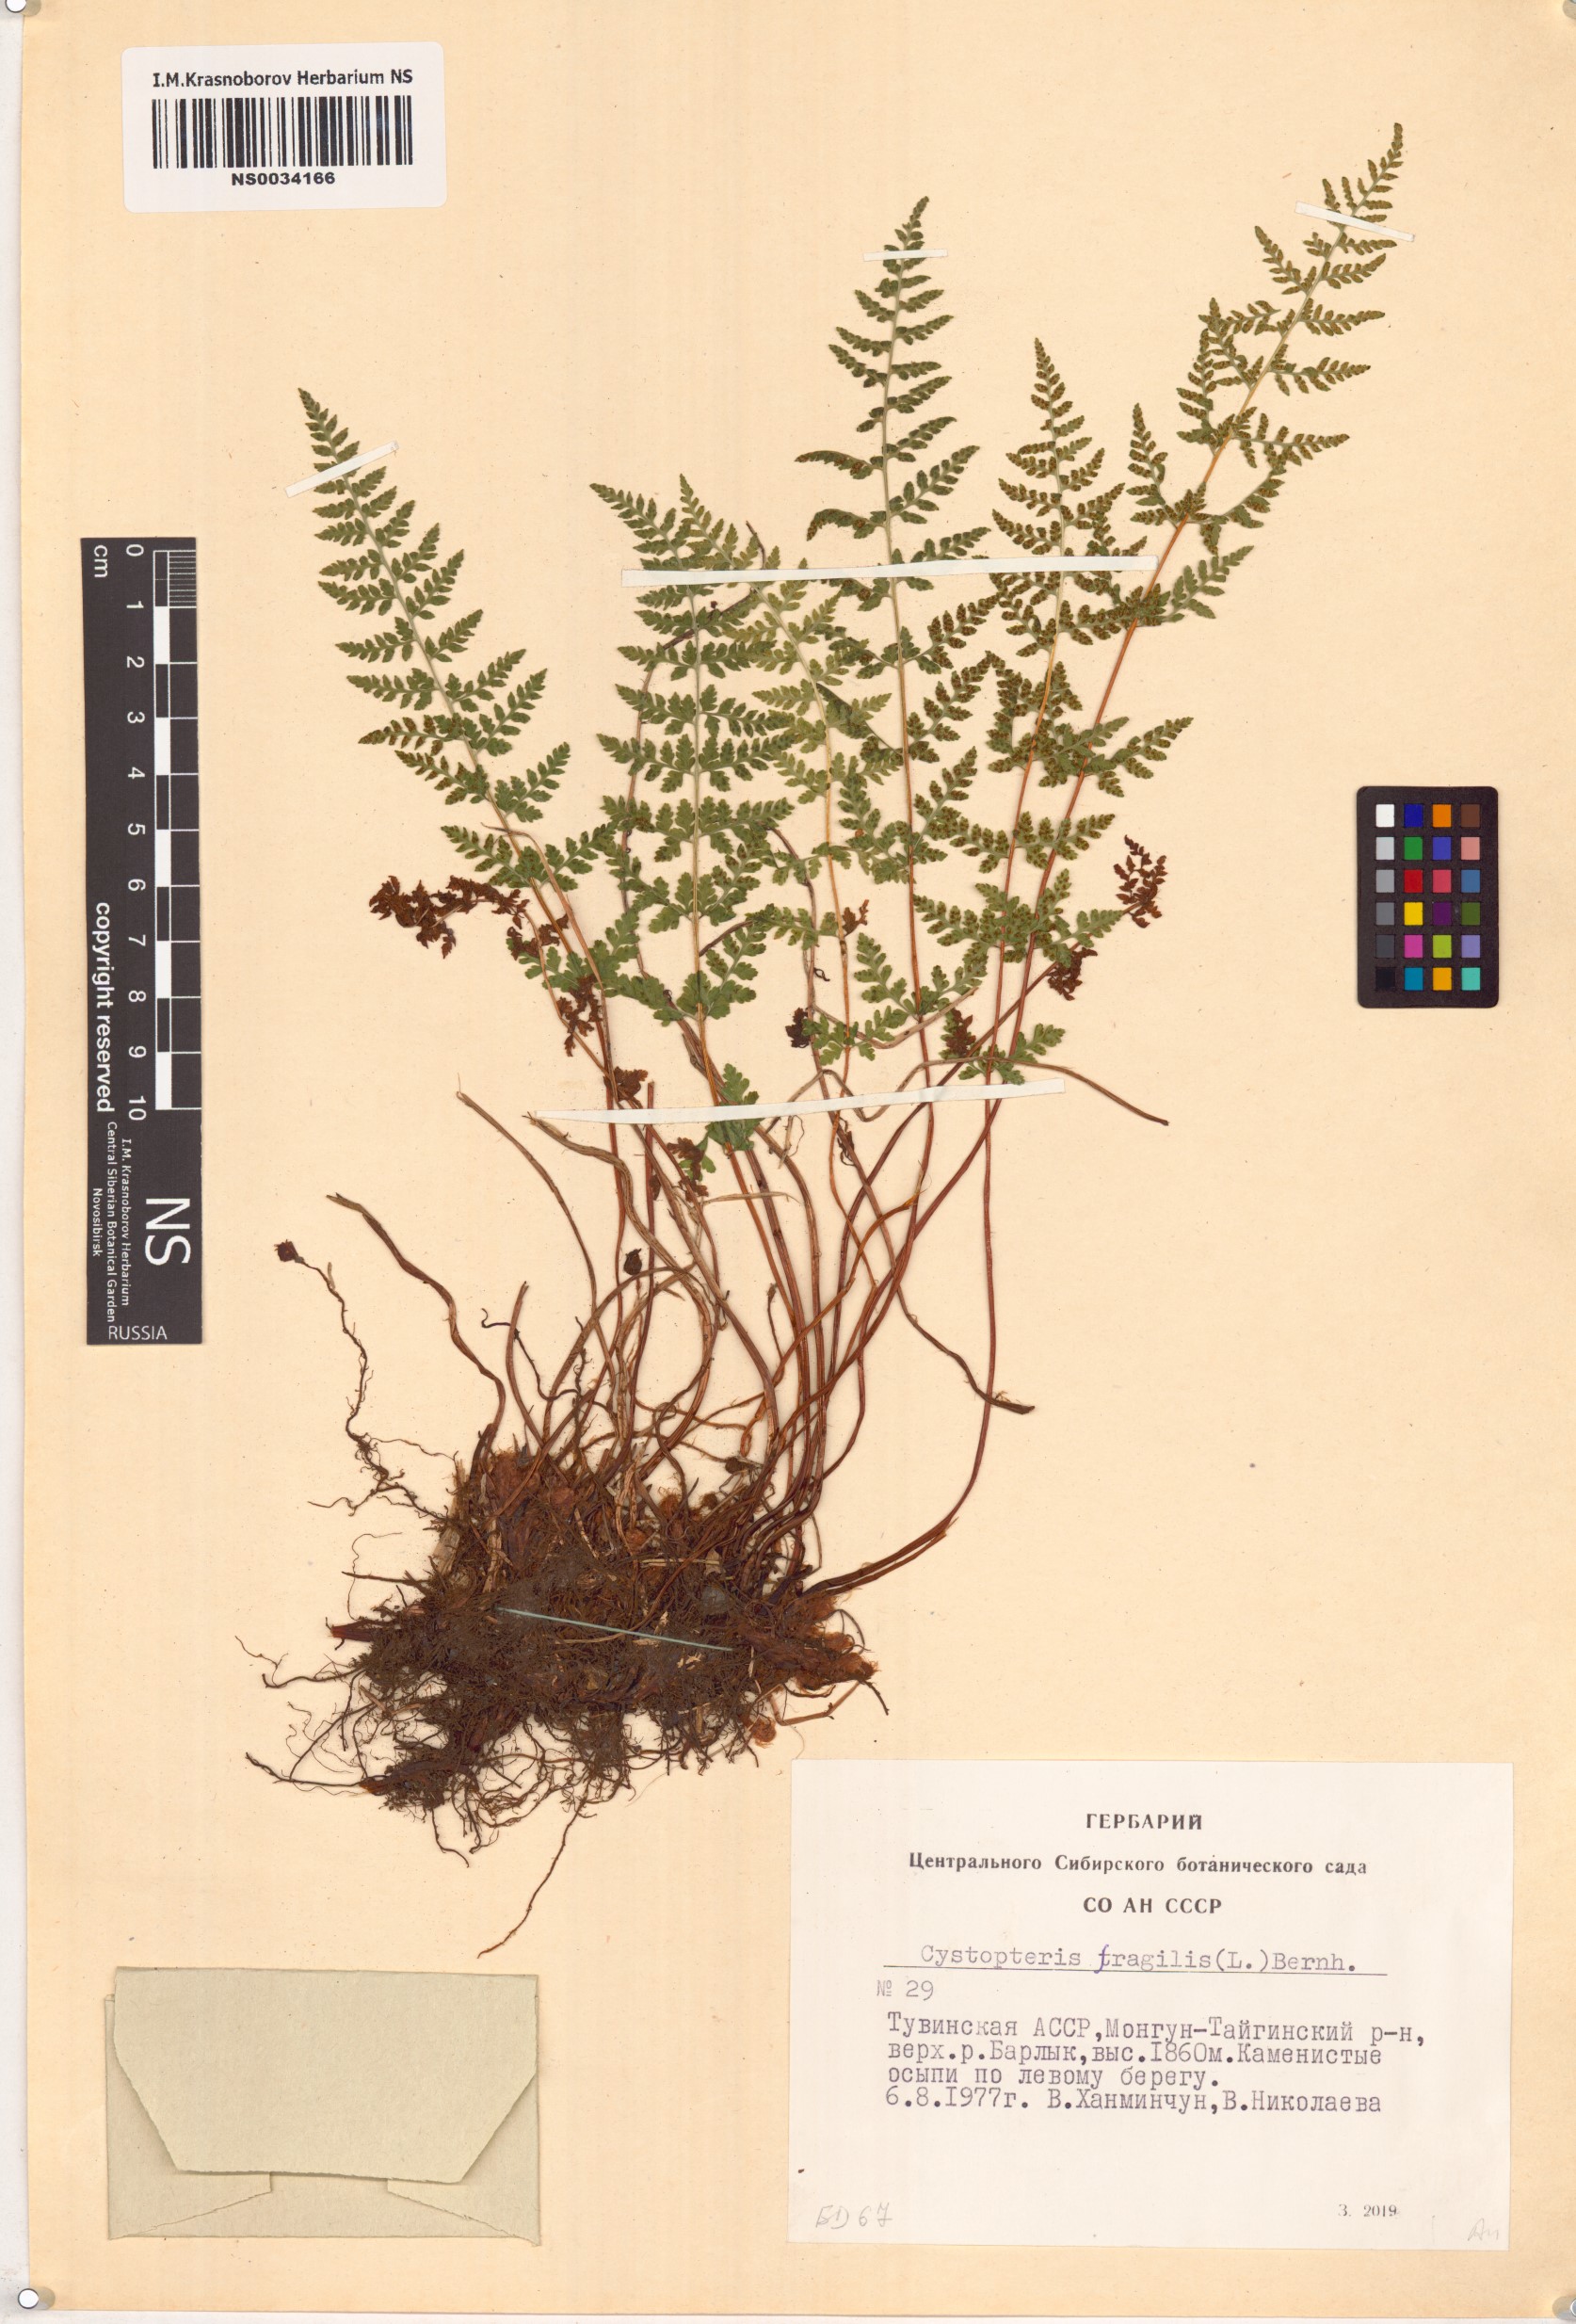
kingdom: Plantae
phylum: Tracheophyta
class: Polypodiopsida
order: Polypodiales
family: Cystopteridaceae
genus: Cystopteris
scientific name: Cystopteris fragilis
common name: Brittle bladder fern
